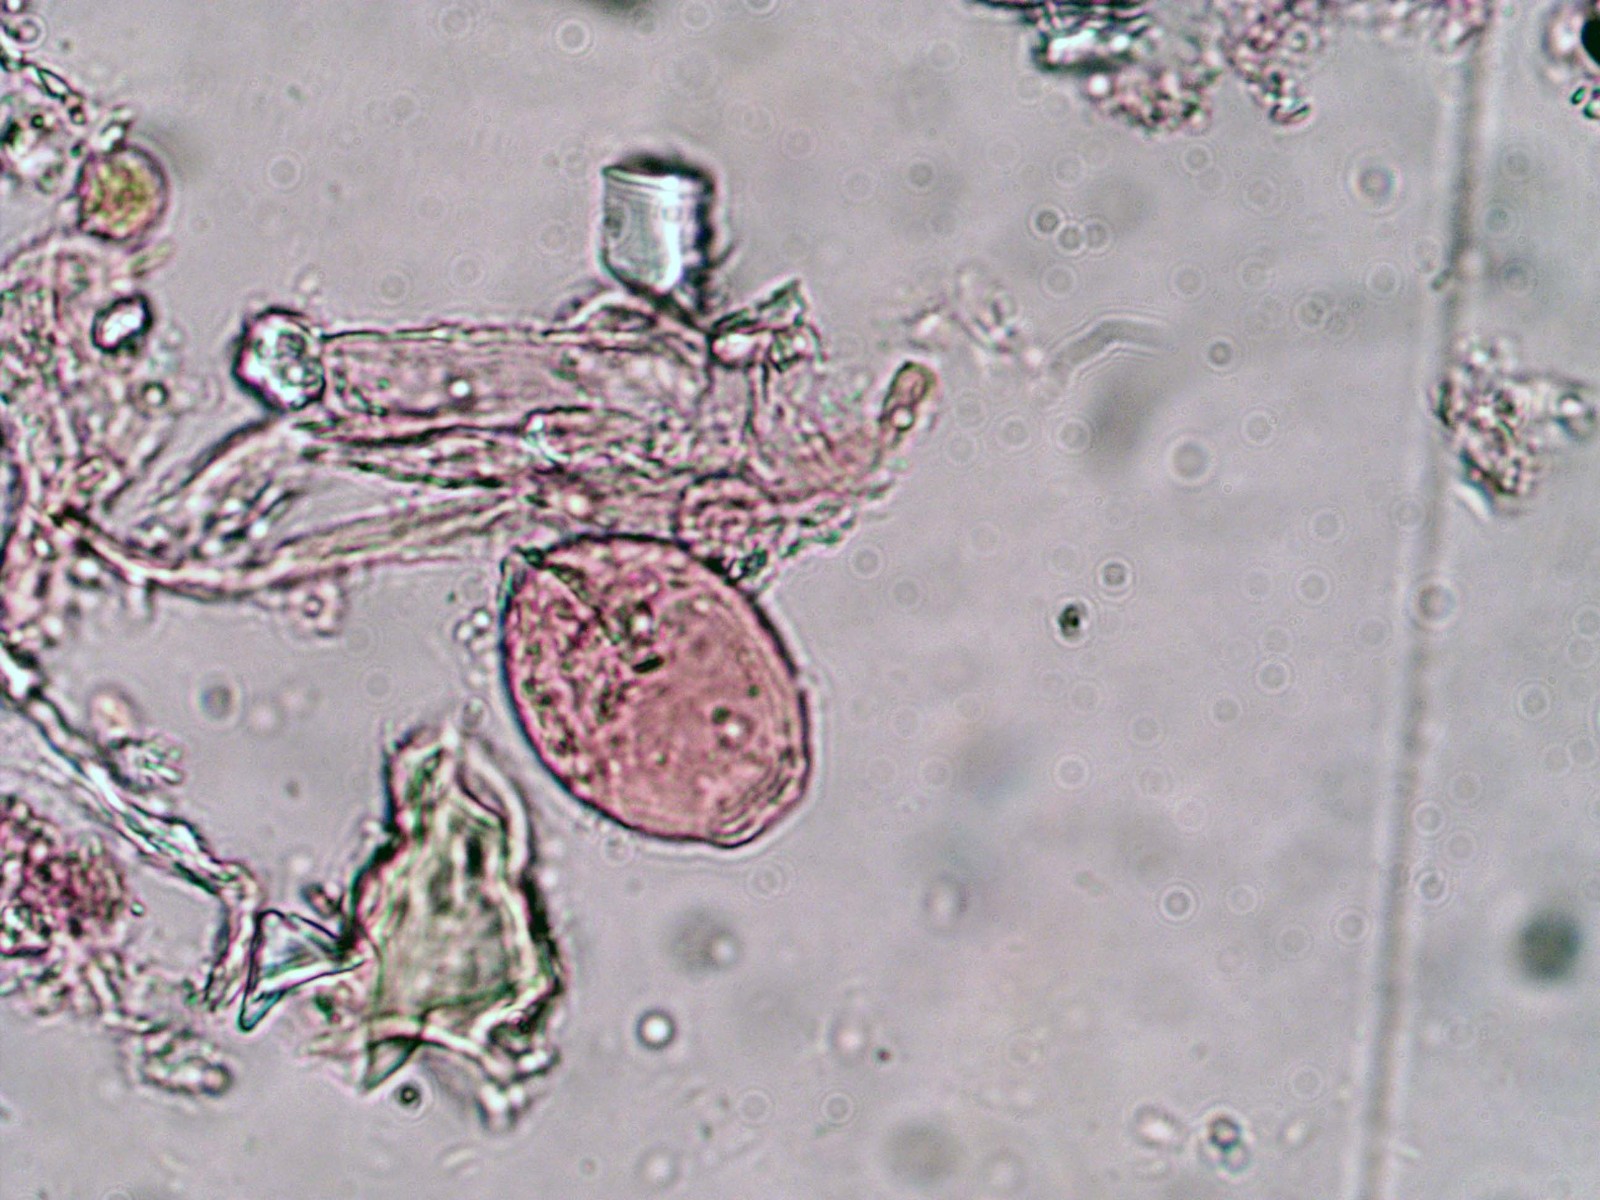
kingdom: Fungi
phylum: Ascomycota
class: Leotiomycetes
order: Helotiales
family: Erysiphaceae
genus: Sawadaea
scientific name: Sawadaea bicornis
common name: Maple mildew
